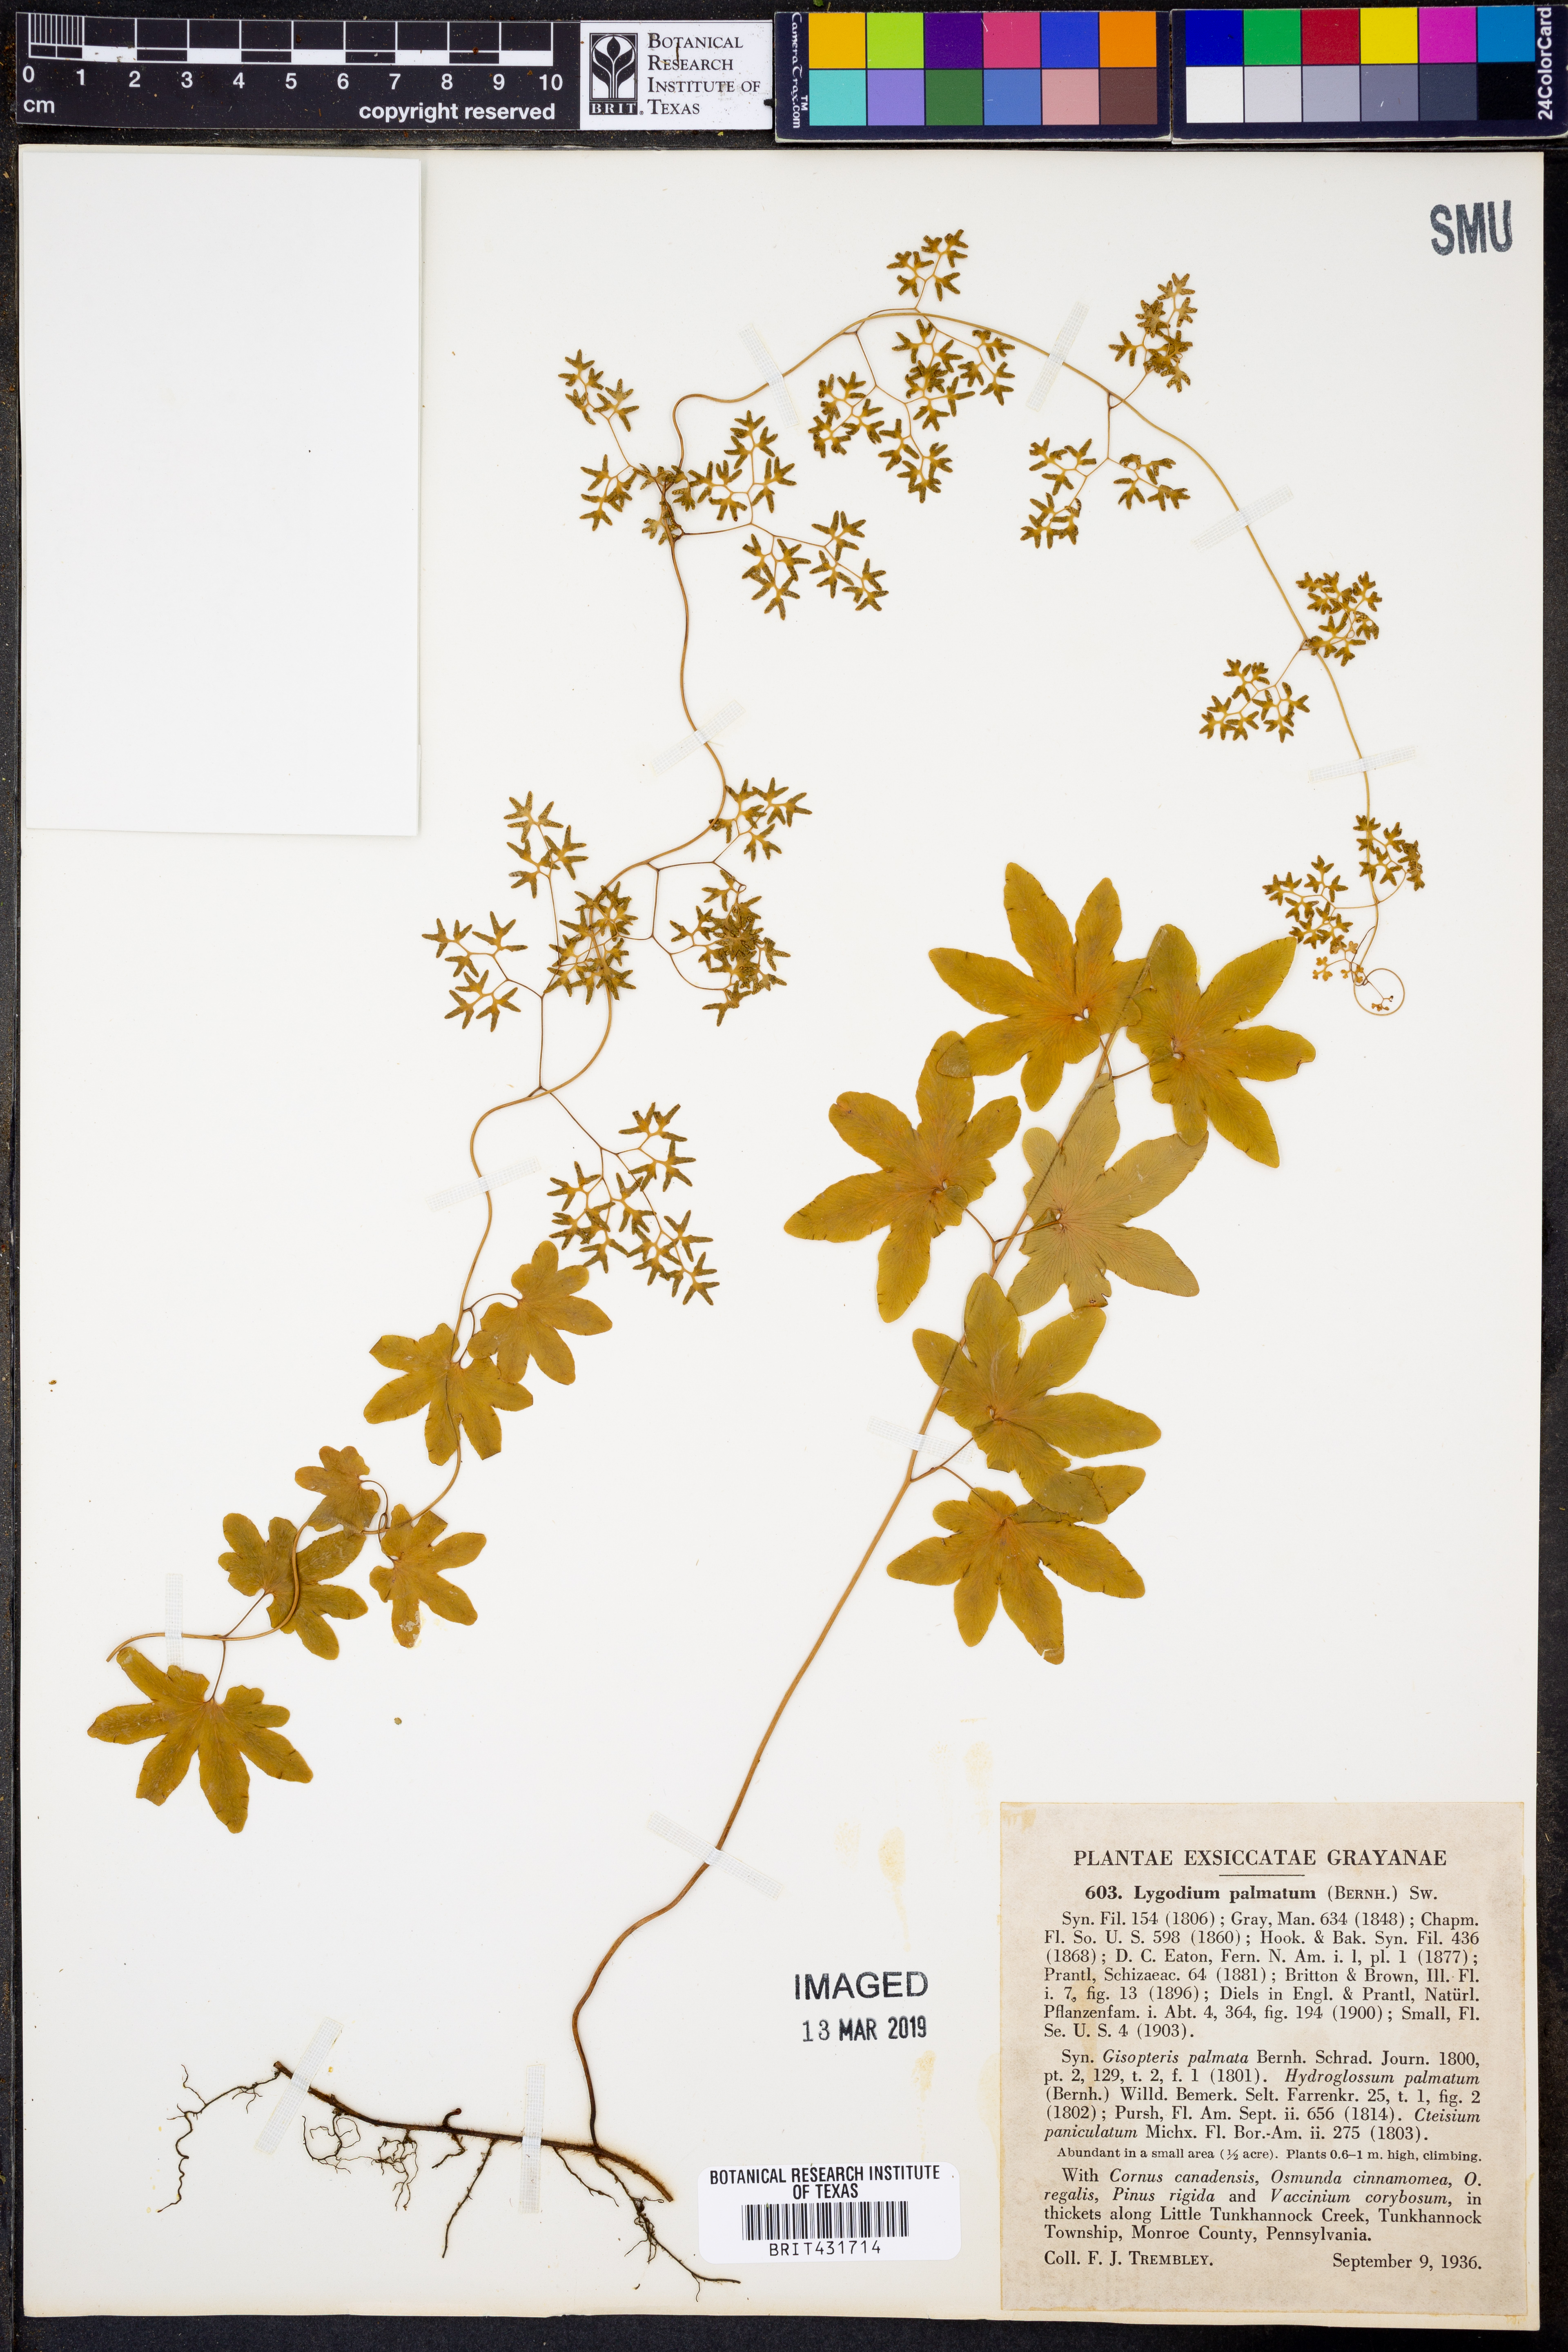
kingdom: Plantae
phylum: Tracheophyta
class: Polypodiopsida
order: Schizaeales
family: Lygodiaceae
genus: Lygodium
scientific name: Lygodium palmatum
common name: American climbing fern
